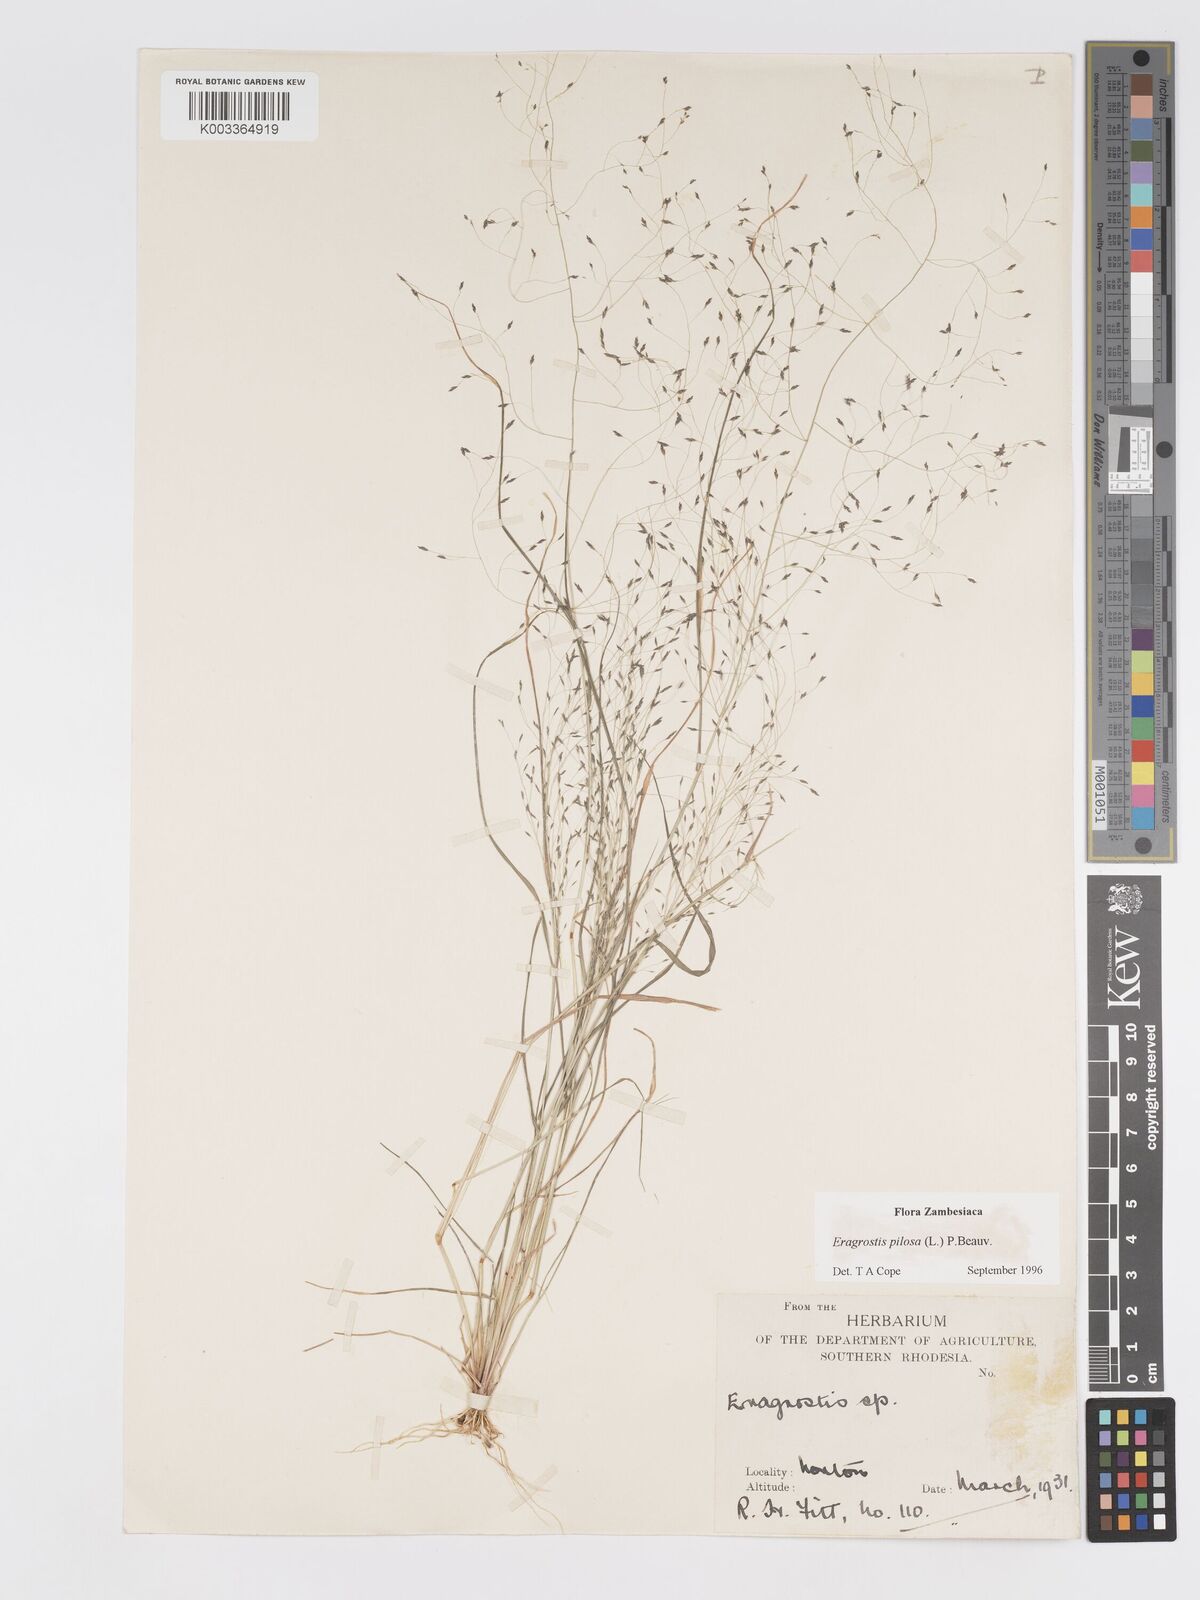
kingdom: Plantae
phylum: Tracheophyta
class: Liliopsida
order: Poales
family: Poaceae
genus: Eragrostis
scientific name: Eragrostis pilosa
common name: Indian lovegrass
